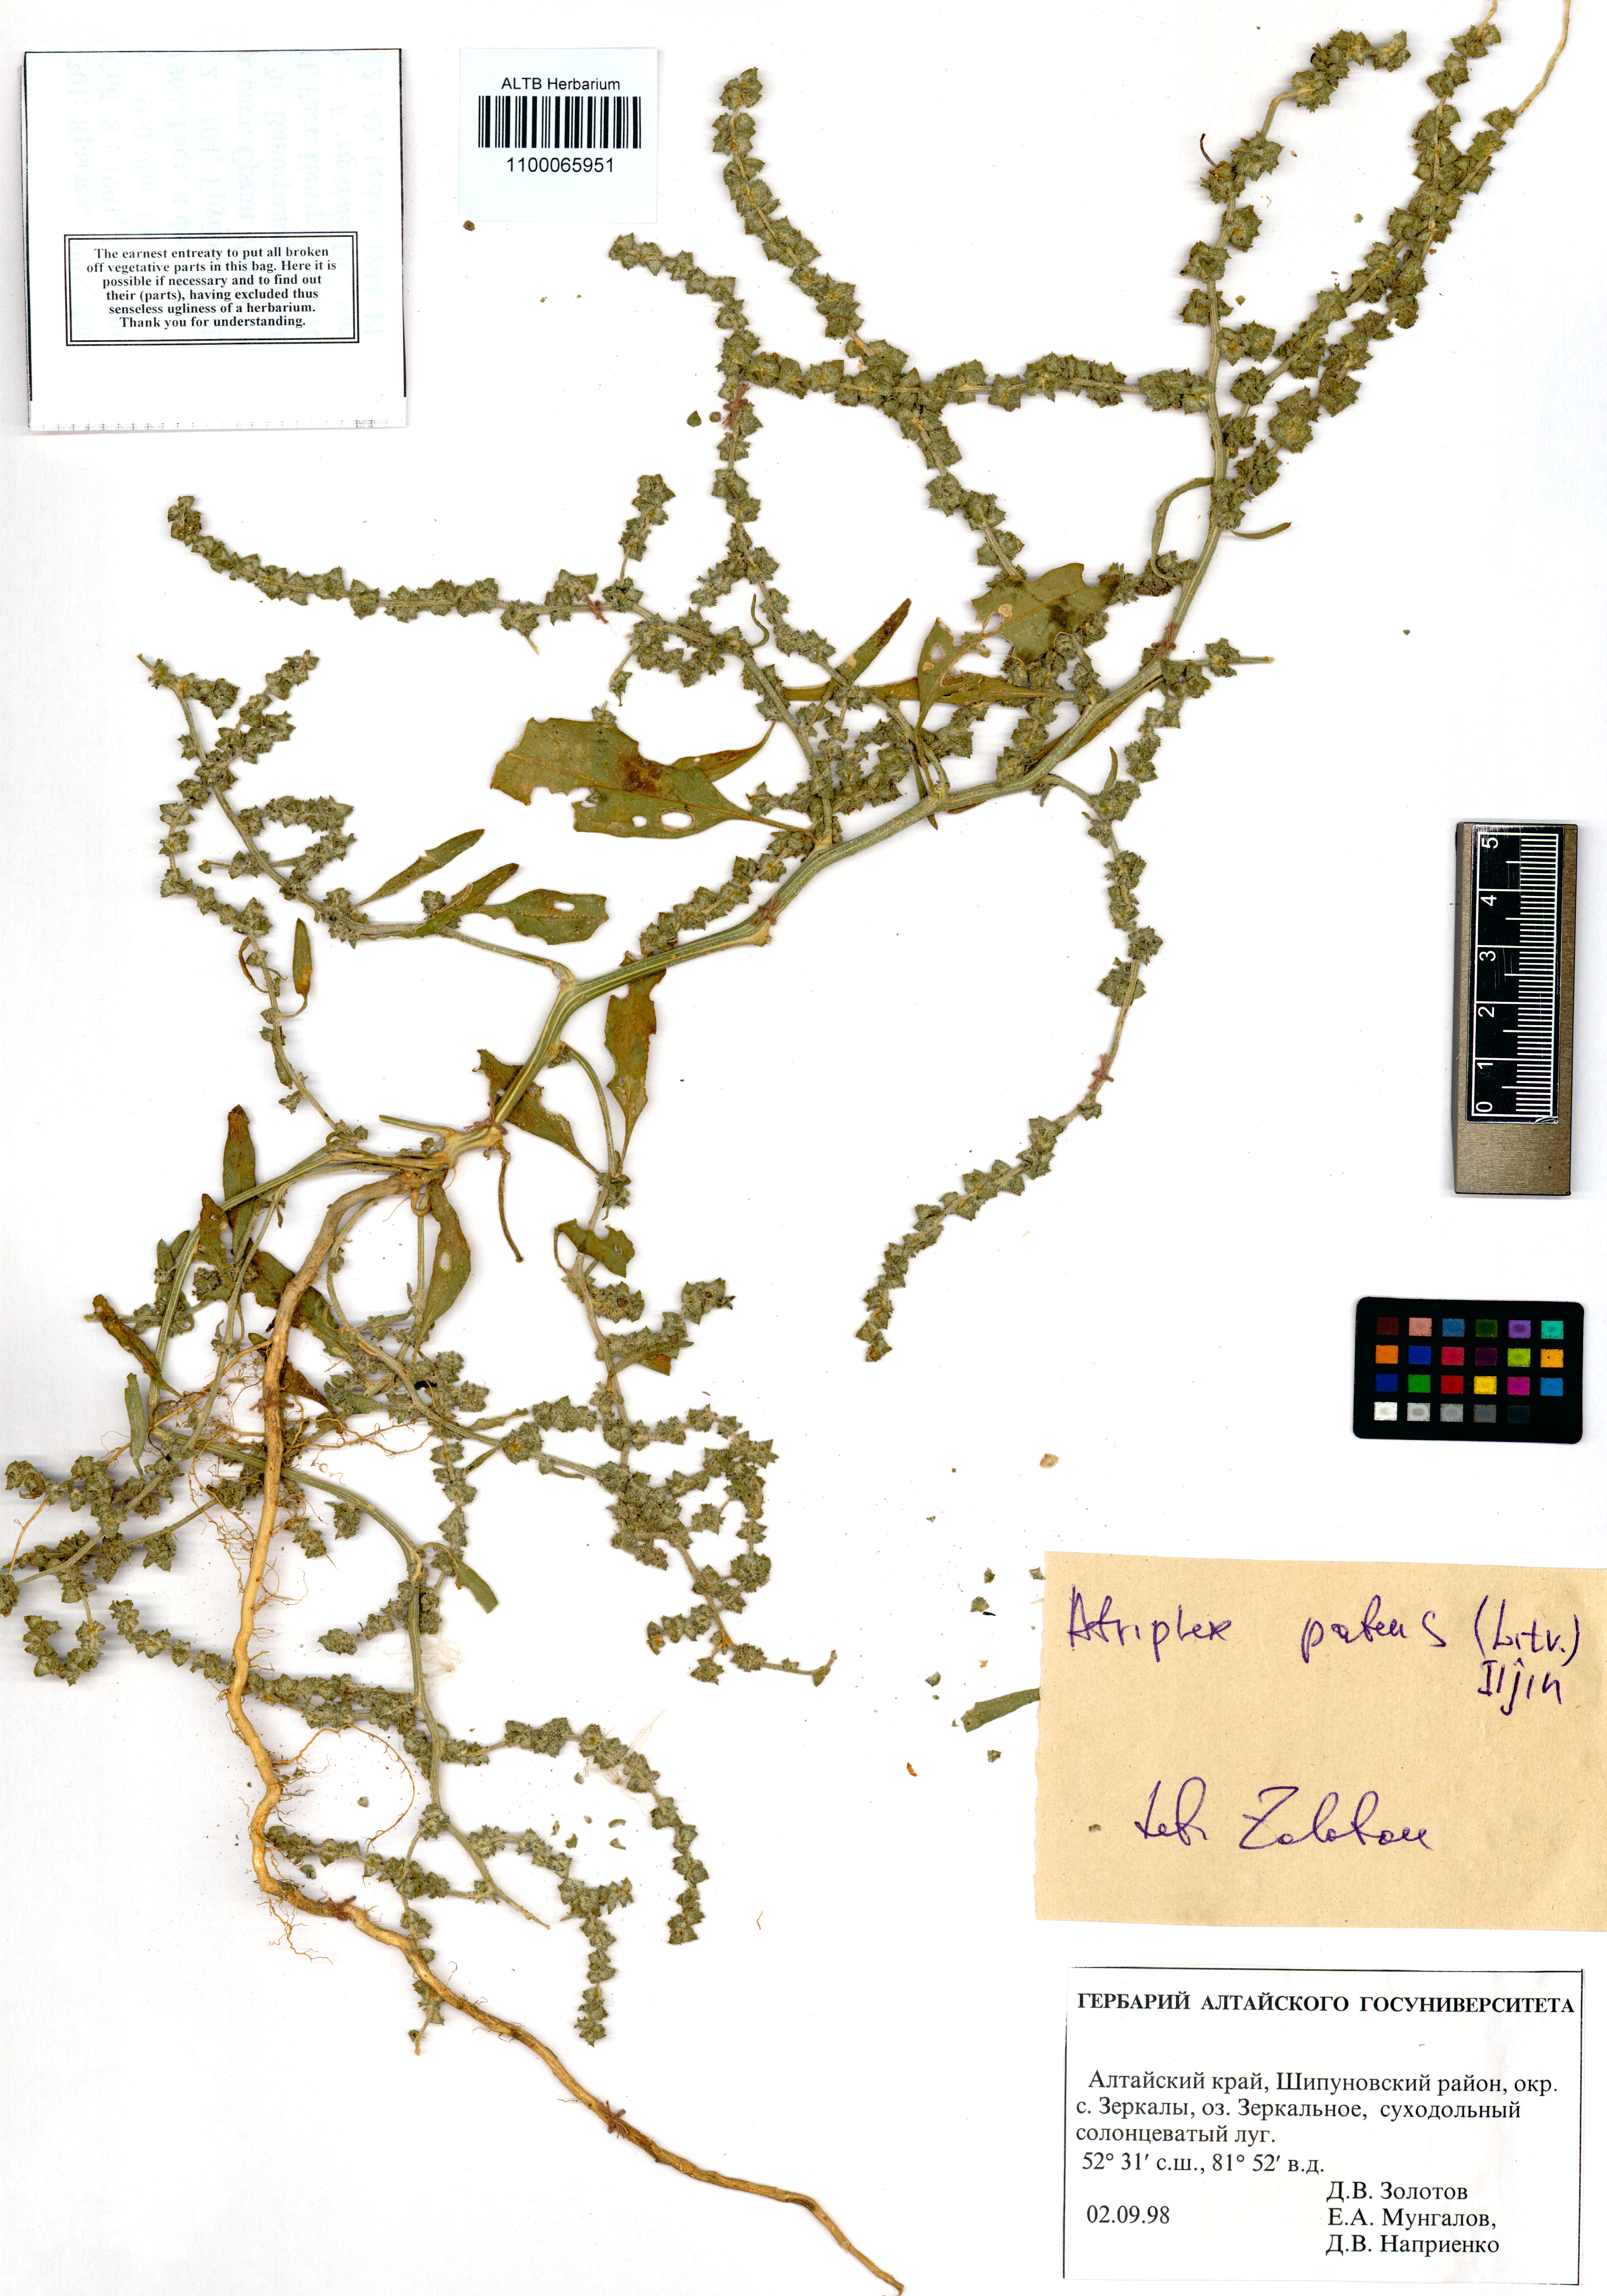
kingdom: Plantae
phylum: Tracheophyta
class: Magnoliopsida
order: Caryophyllales
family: Amaranthaceae
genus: Atriplex
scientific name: Atriplex patens
